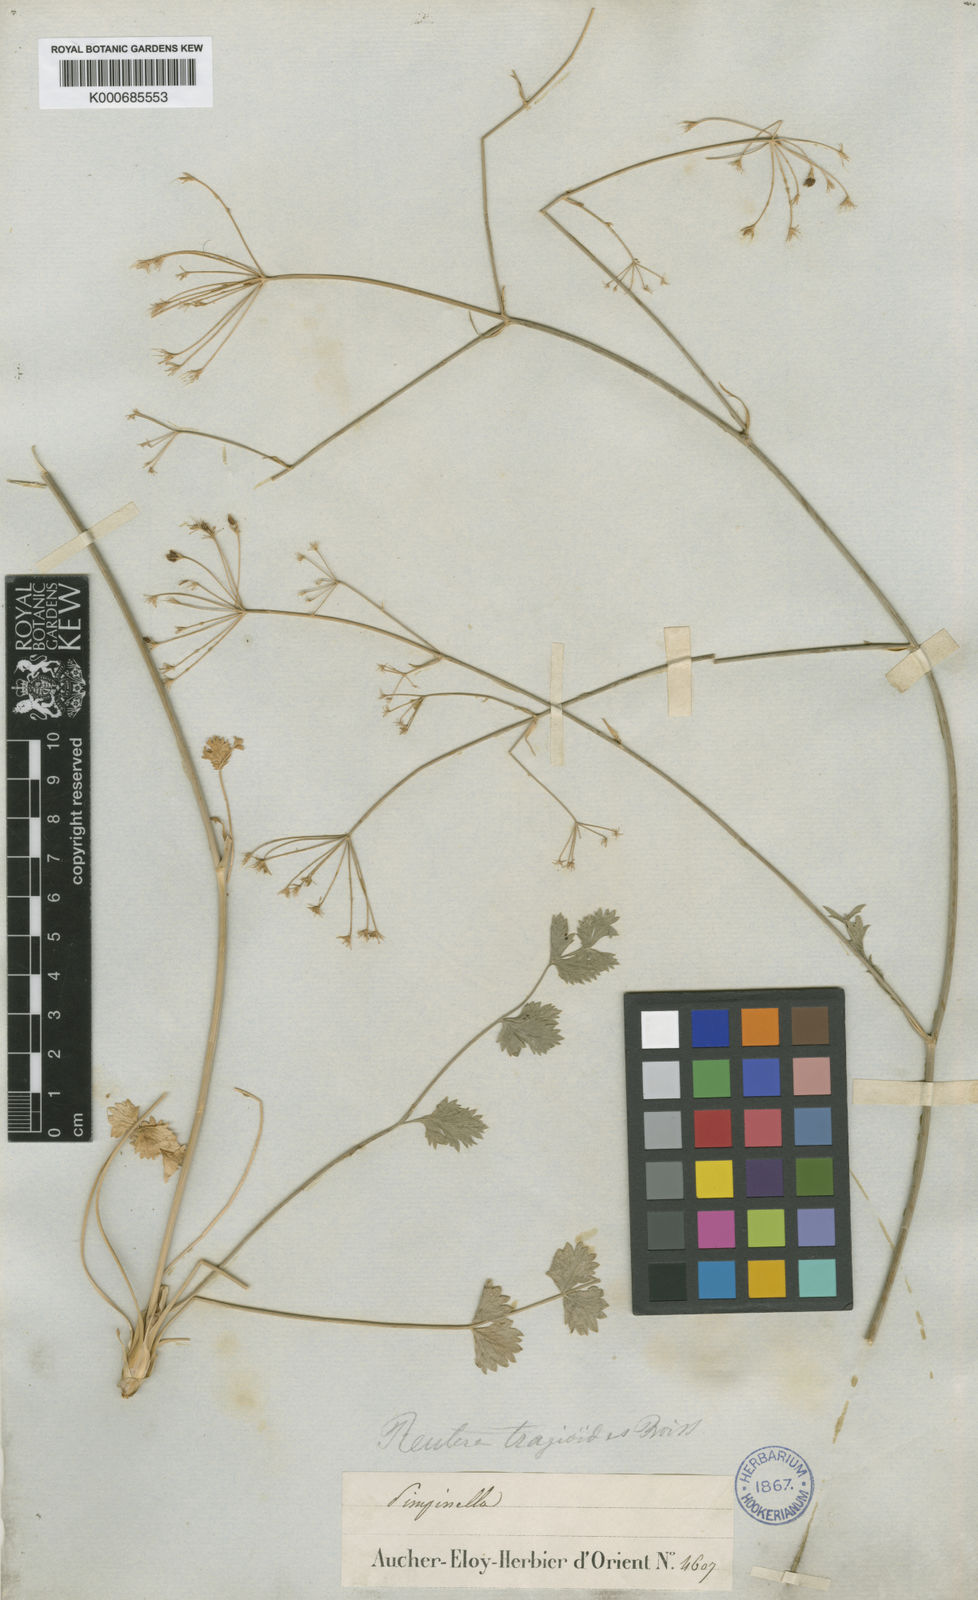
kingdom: Plantae
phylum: Tracheophyta
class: Magnoliopsida
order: Apiales
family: Apiaceae
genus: Pimpinella
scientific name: Pimpinella
